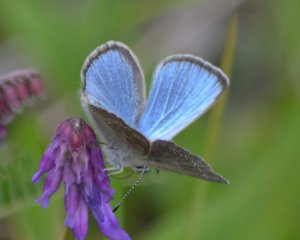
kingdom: Animalia
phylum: Arthropoda
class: Insecta
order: Lepidoptera
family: Lycaenidae
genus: Glaucopsyche
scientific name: Glaucopsyche lygdamus
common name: Silvery Blue
